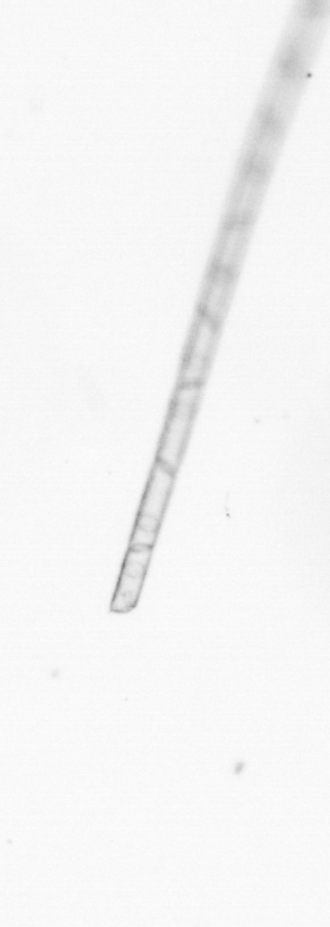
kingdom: Chromista
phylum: Ochrophyta
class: Bacillariophyceae
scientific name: Bacillariophyceae
